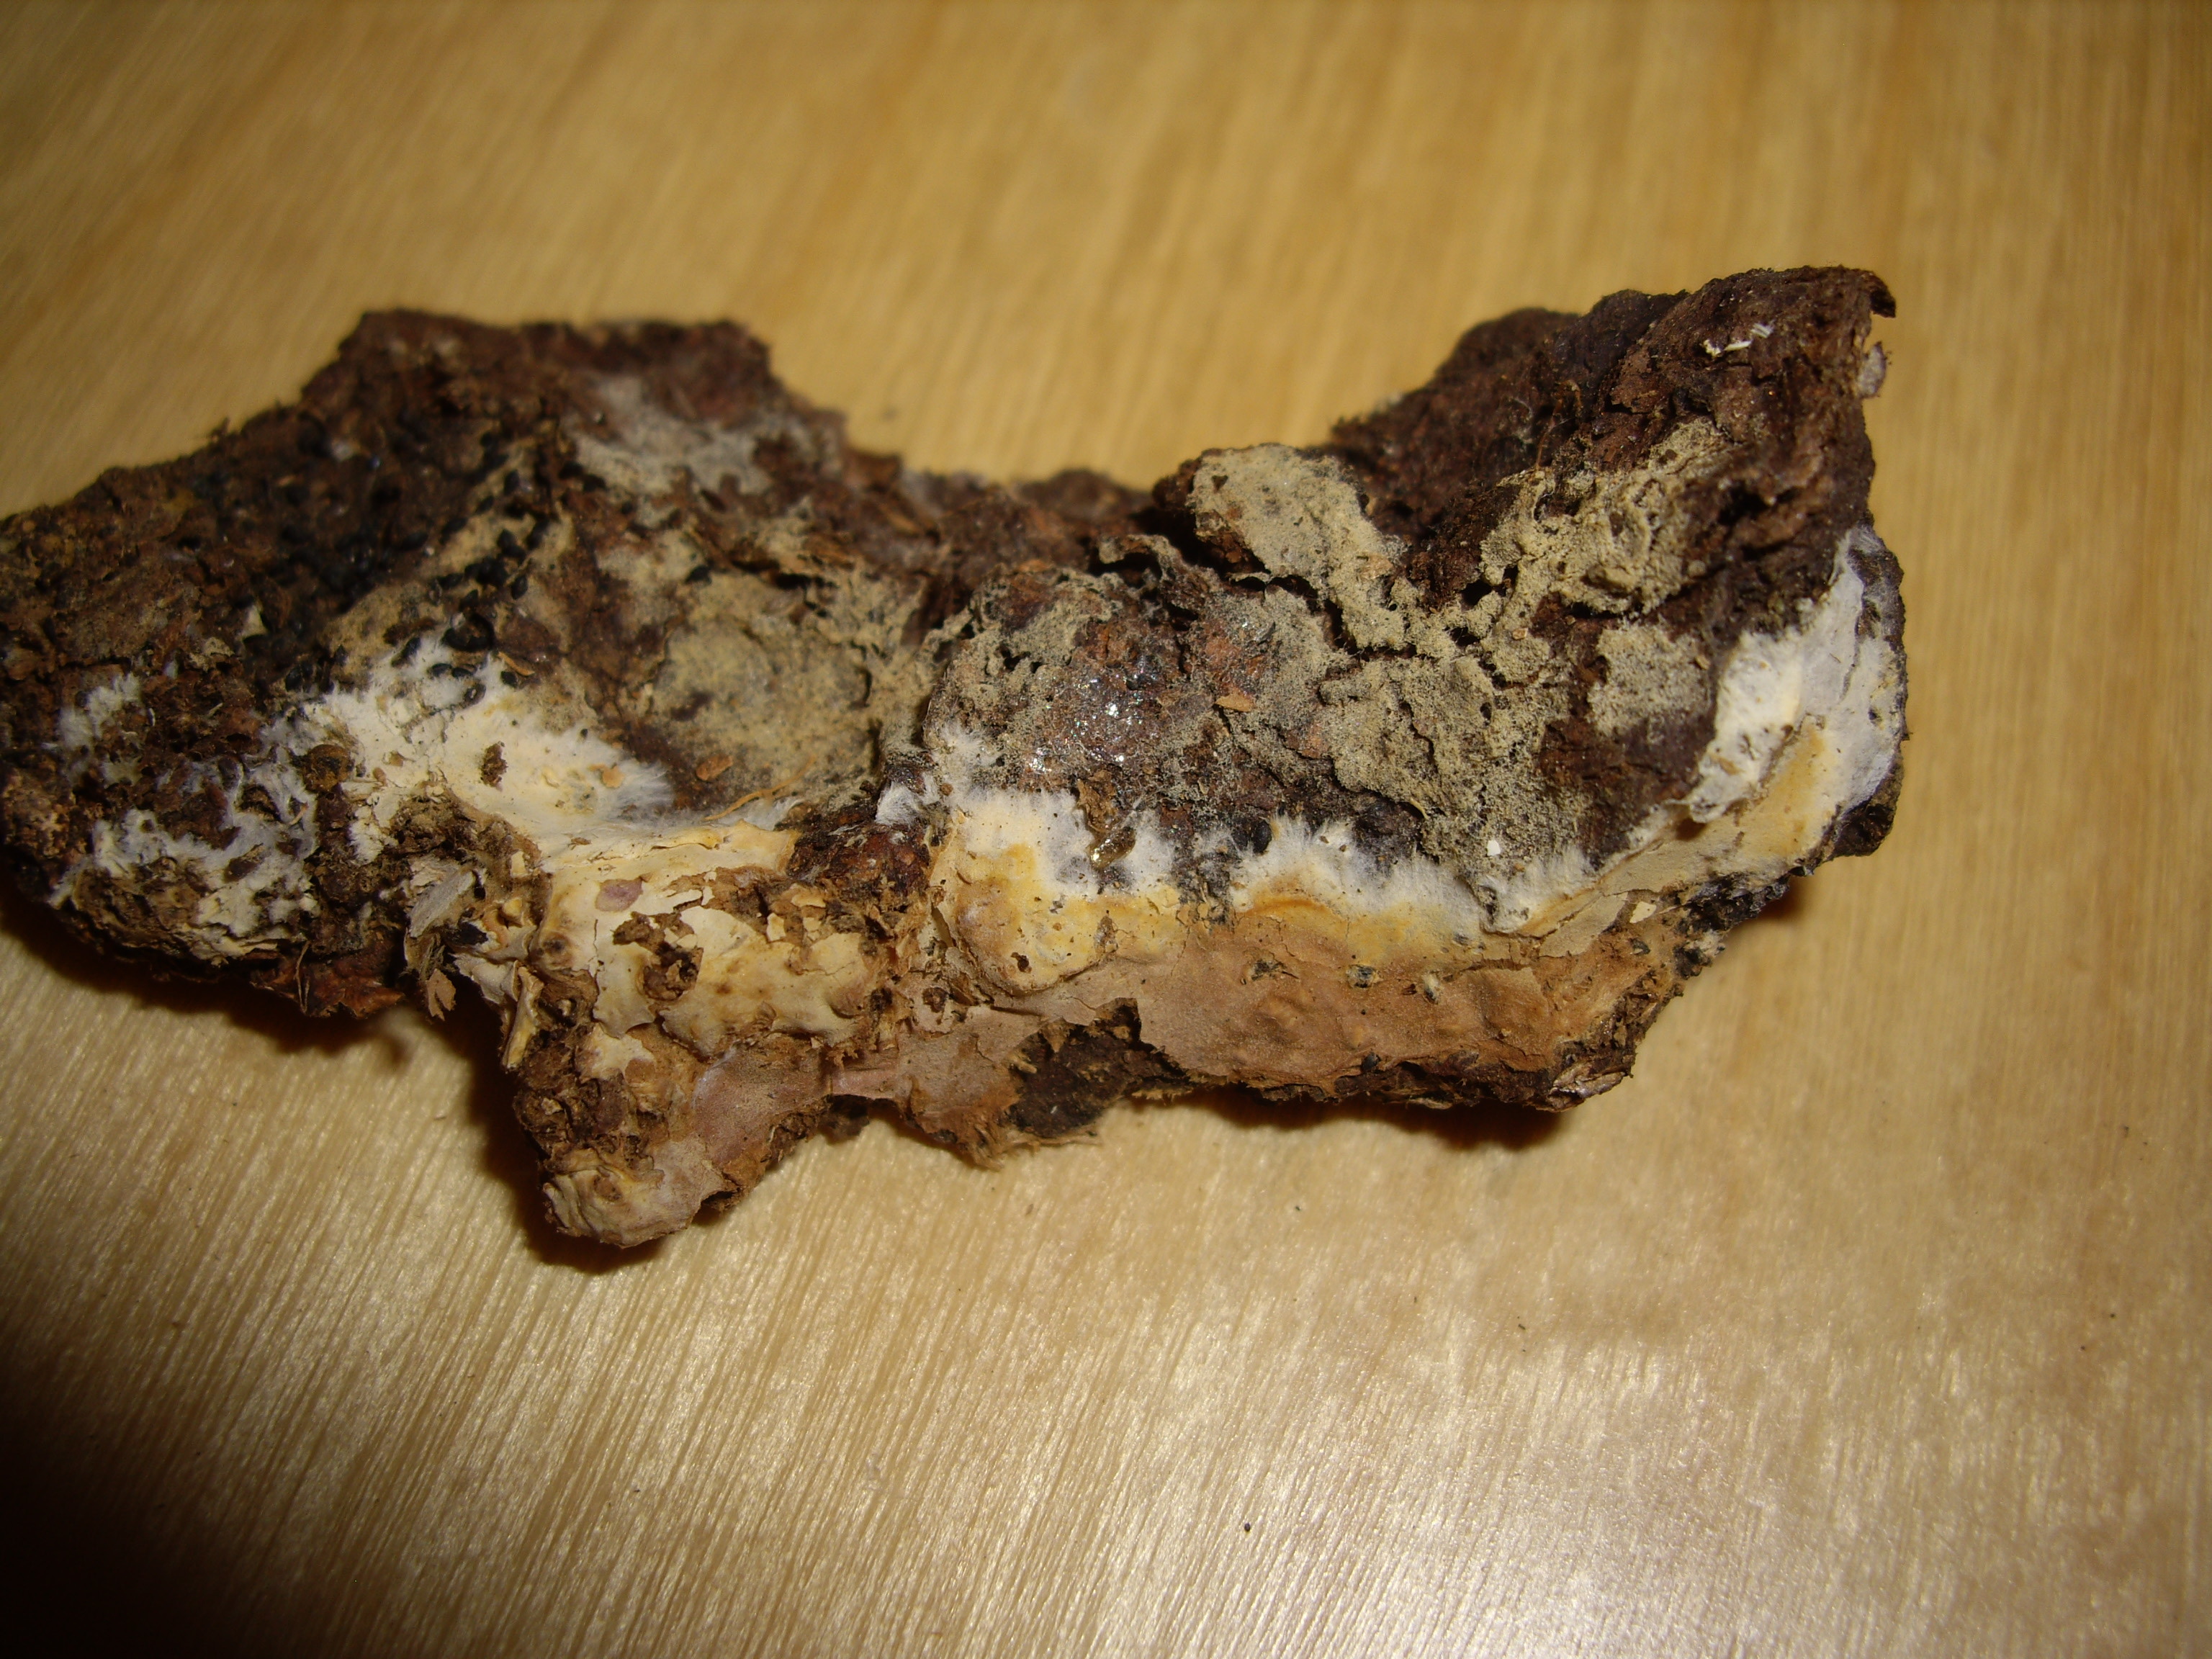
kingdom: Fungi
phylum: Basidiomycota
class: Agaricomycetes
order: Polyporales
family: Phanerochaetaceae
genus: Rhizochaete
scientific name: Rhizochaete violascens
